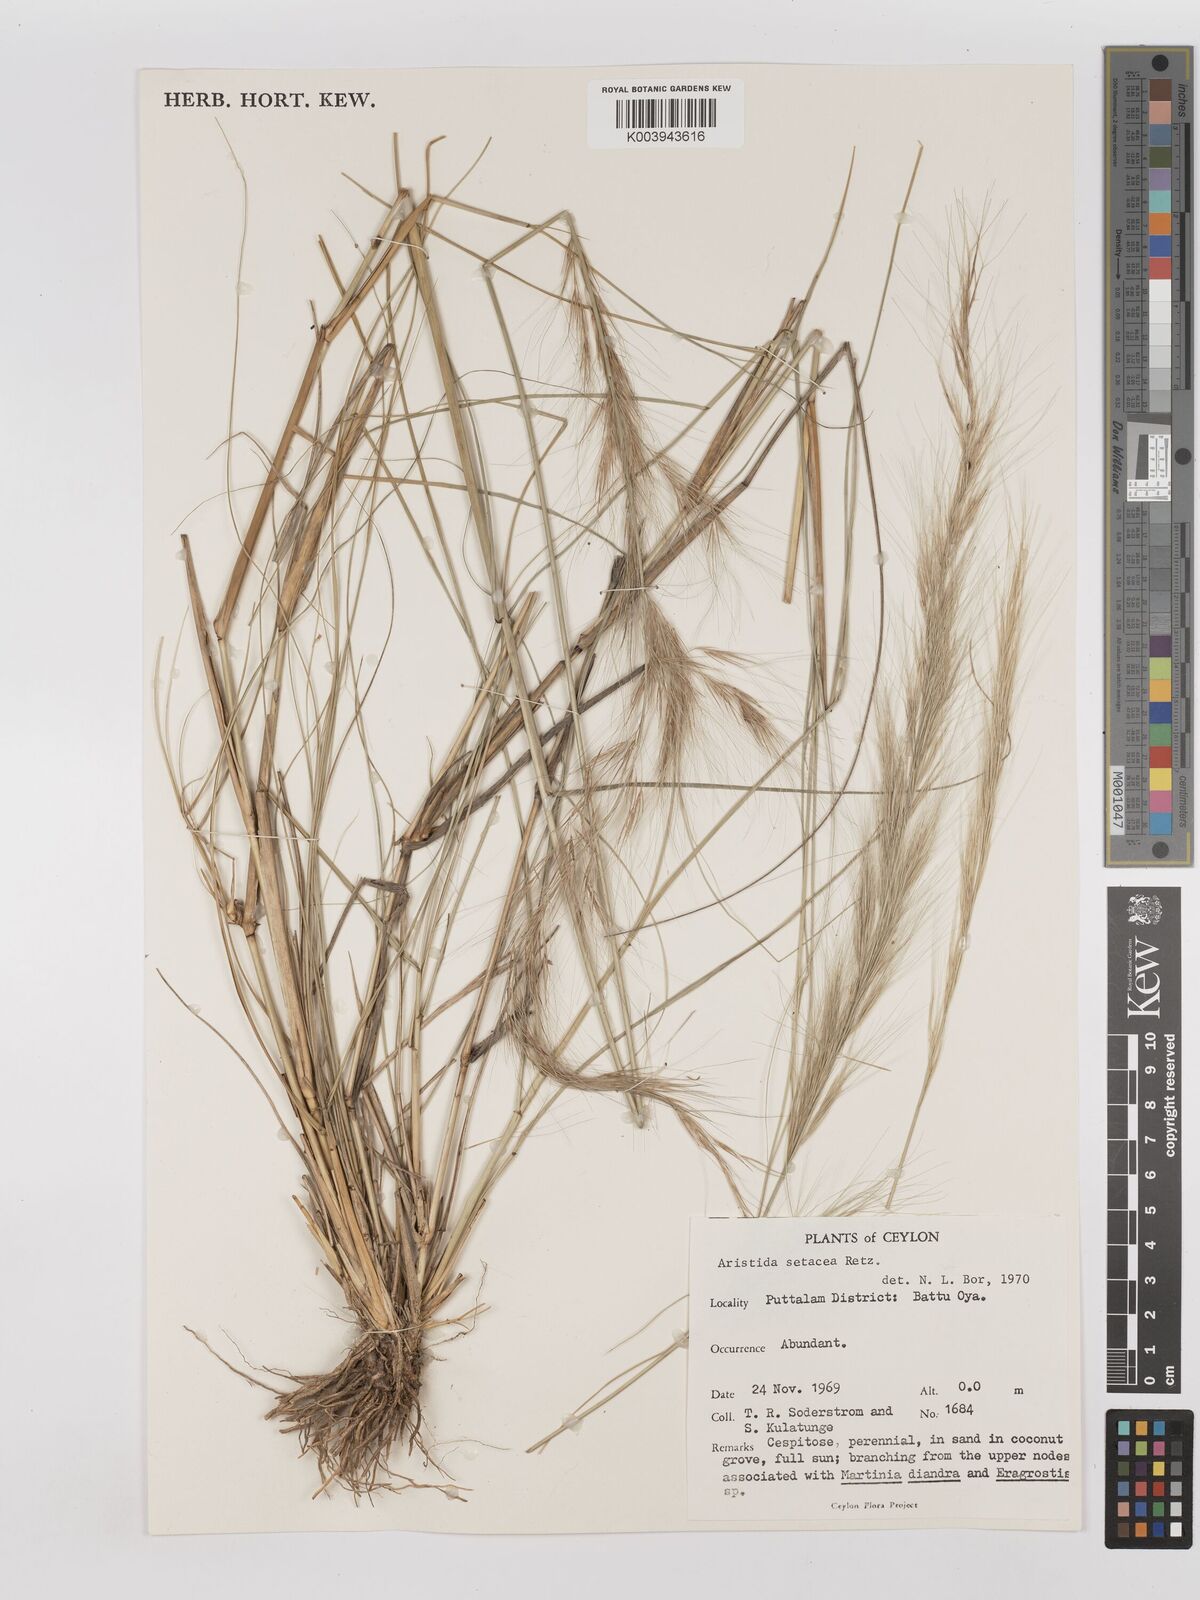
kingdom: Plantae
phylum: Tracheophyta
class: Liliopsida
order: Poales
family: Poaceae
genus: Aristida
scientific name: Aristida setacea
